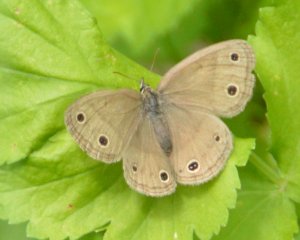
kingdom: Animalia
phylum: Arthropoda
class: Insecta
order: Lepidoptera
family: Nymphalidae
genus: Euptychia
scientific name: Euptychia cymela
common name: Little Wood Satyr
